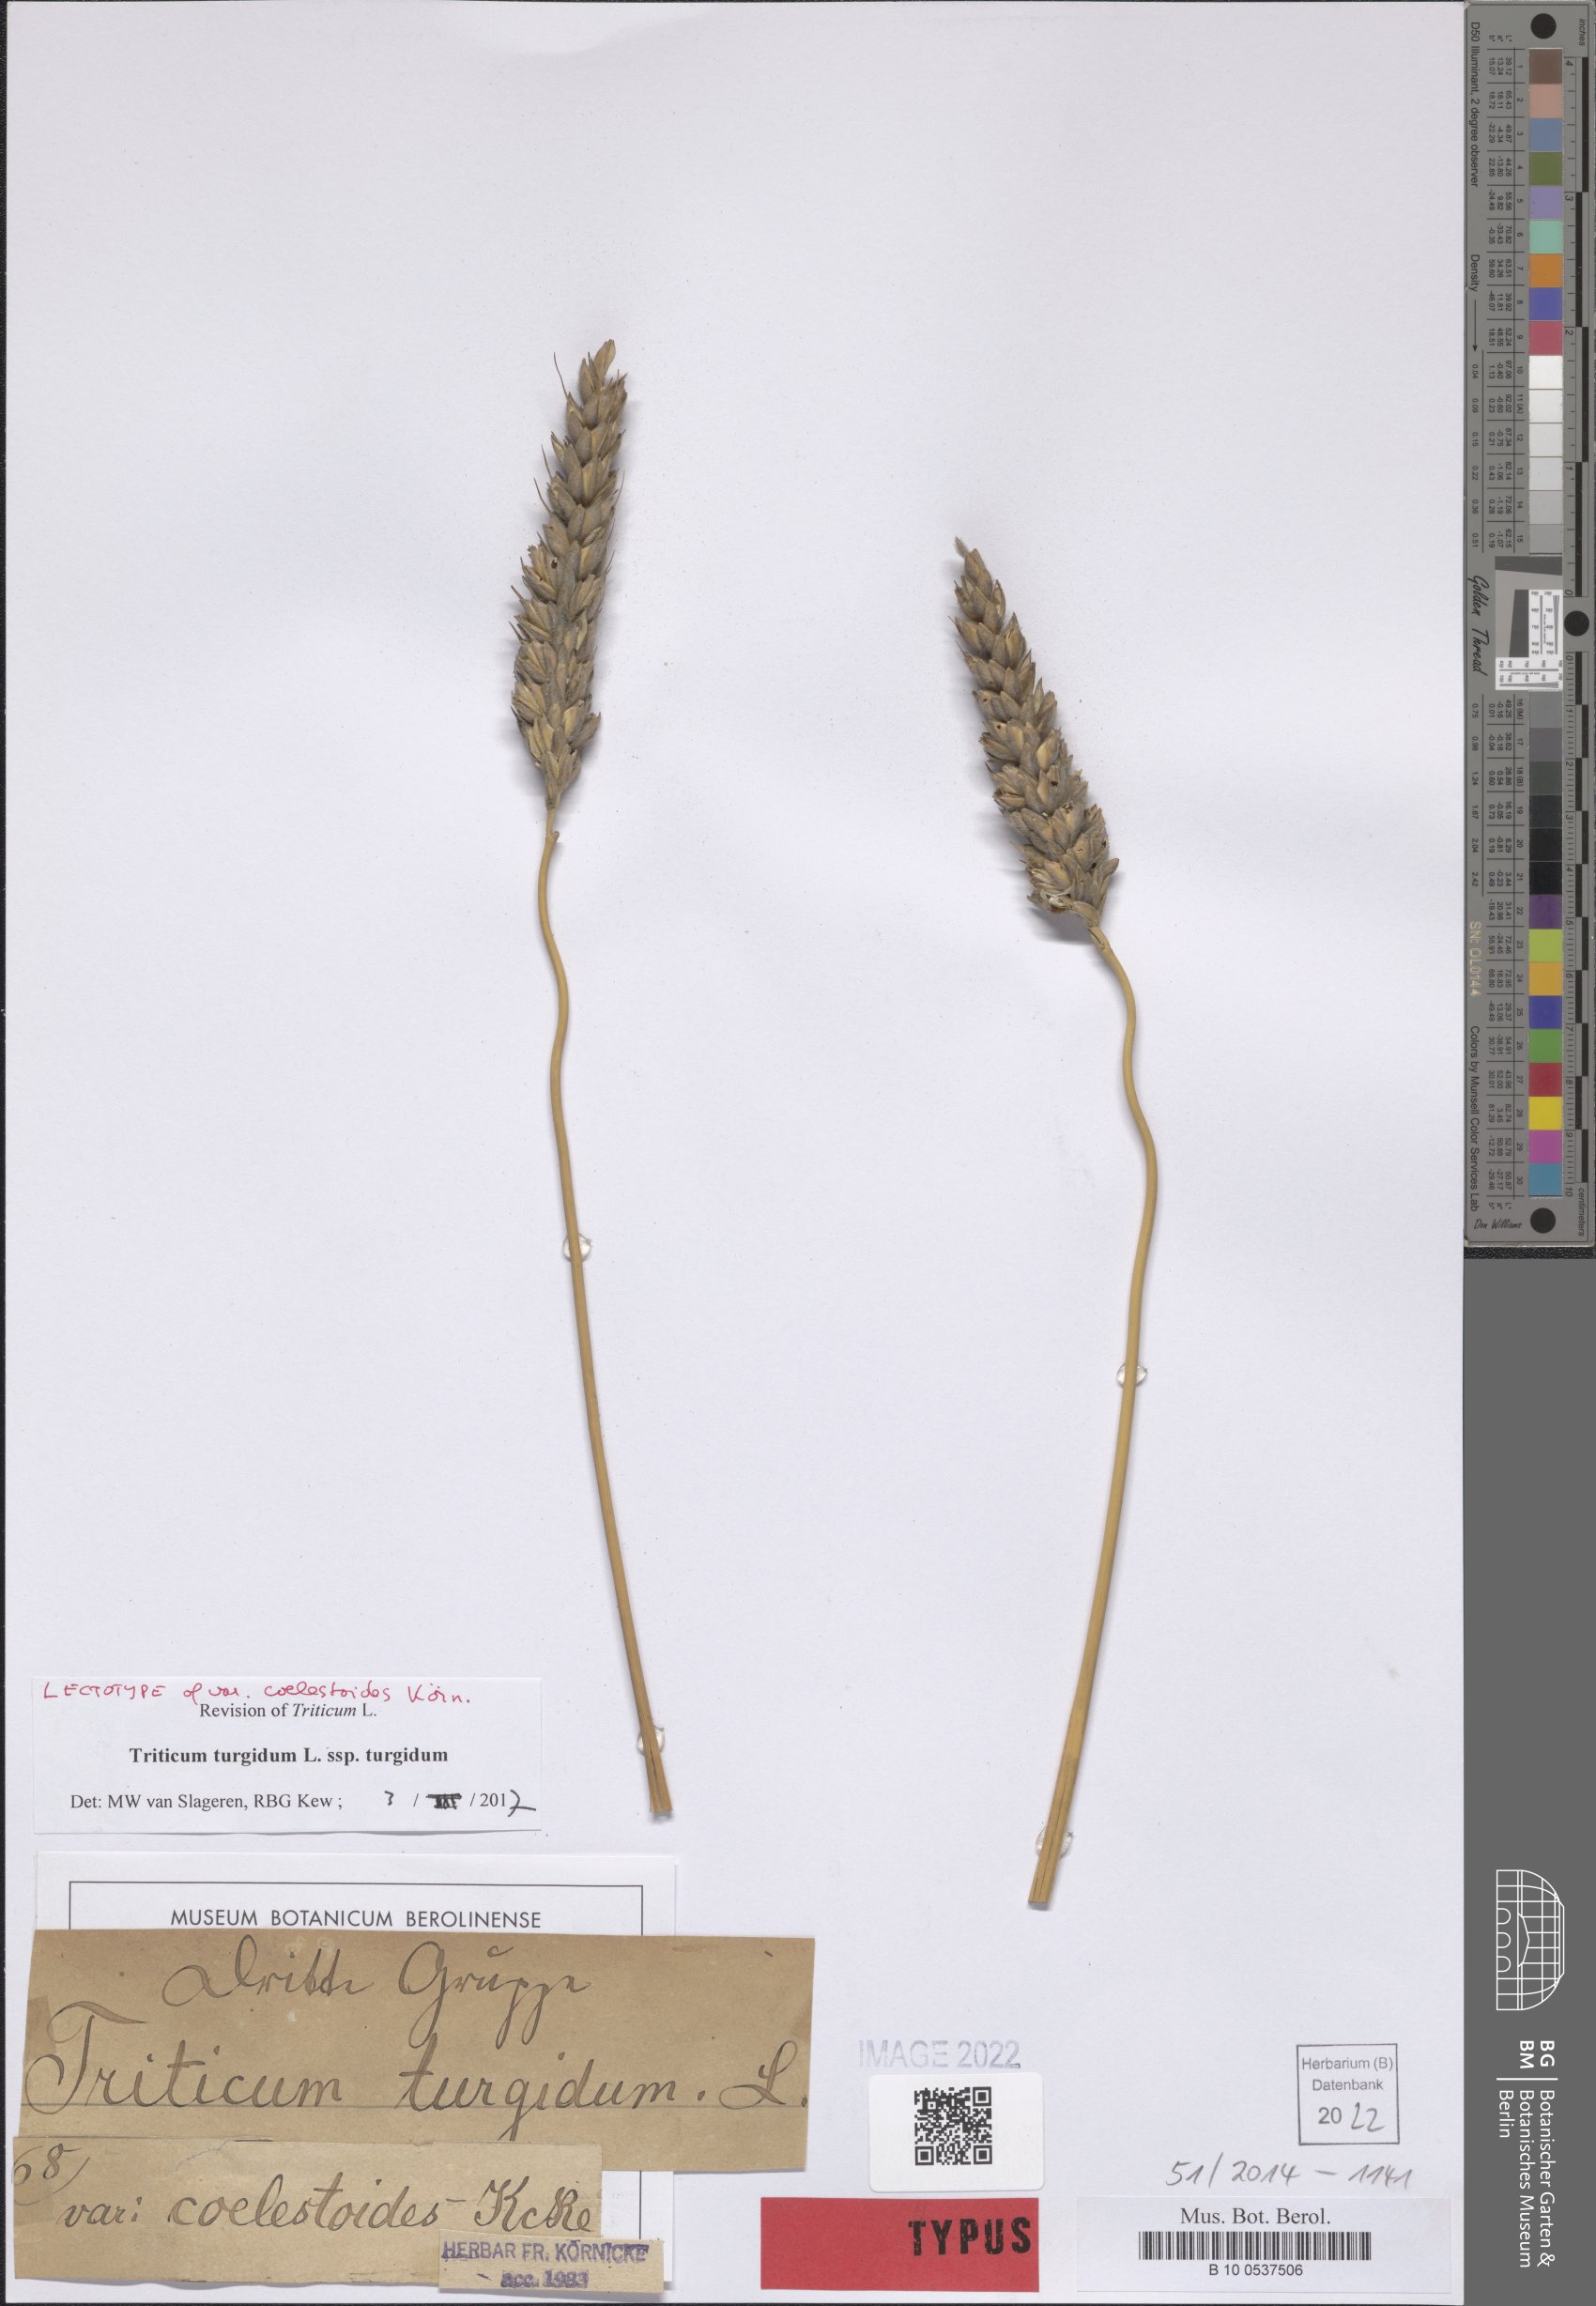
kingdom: Plantae
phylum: Tracheophyta
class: Liliopsida
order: Poales
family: Poaceae
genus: Triticum
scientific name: Triticum turgidum
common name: Rivet wheat
